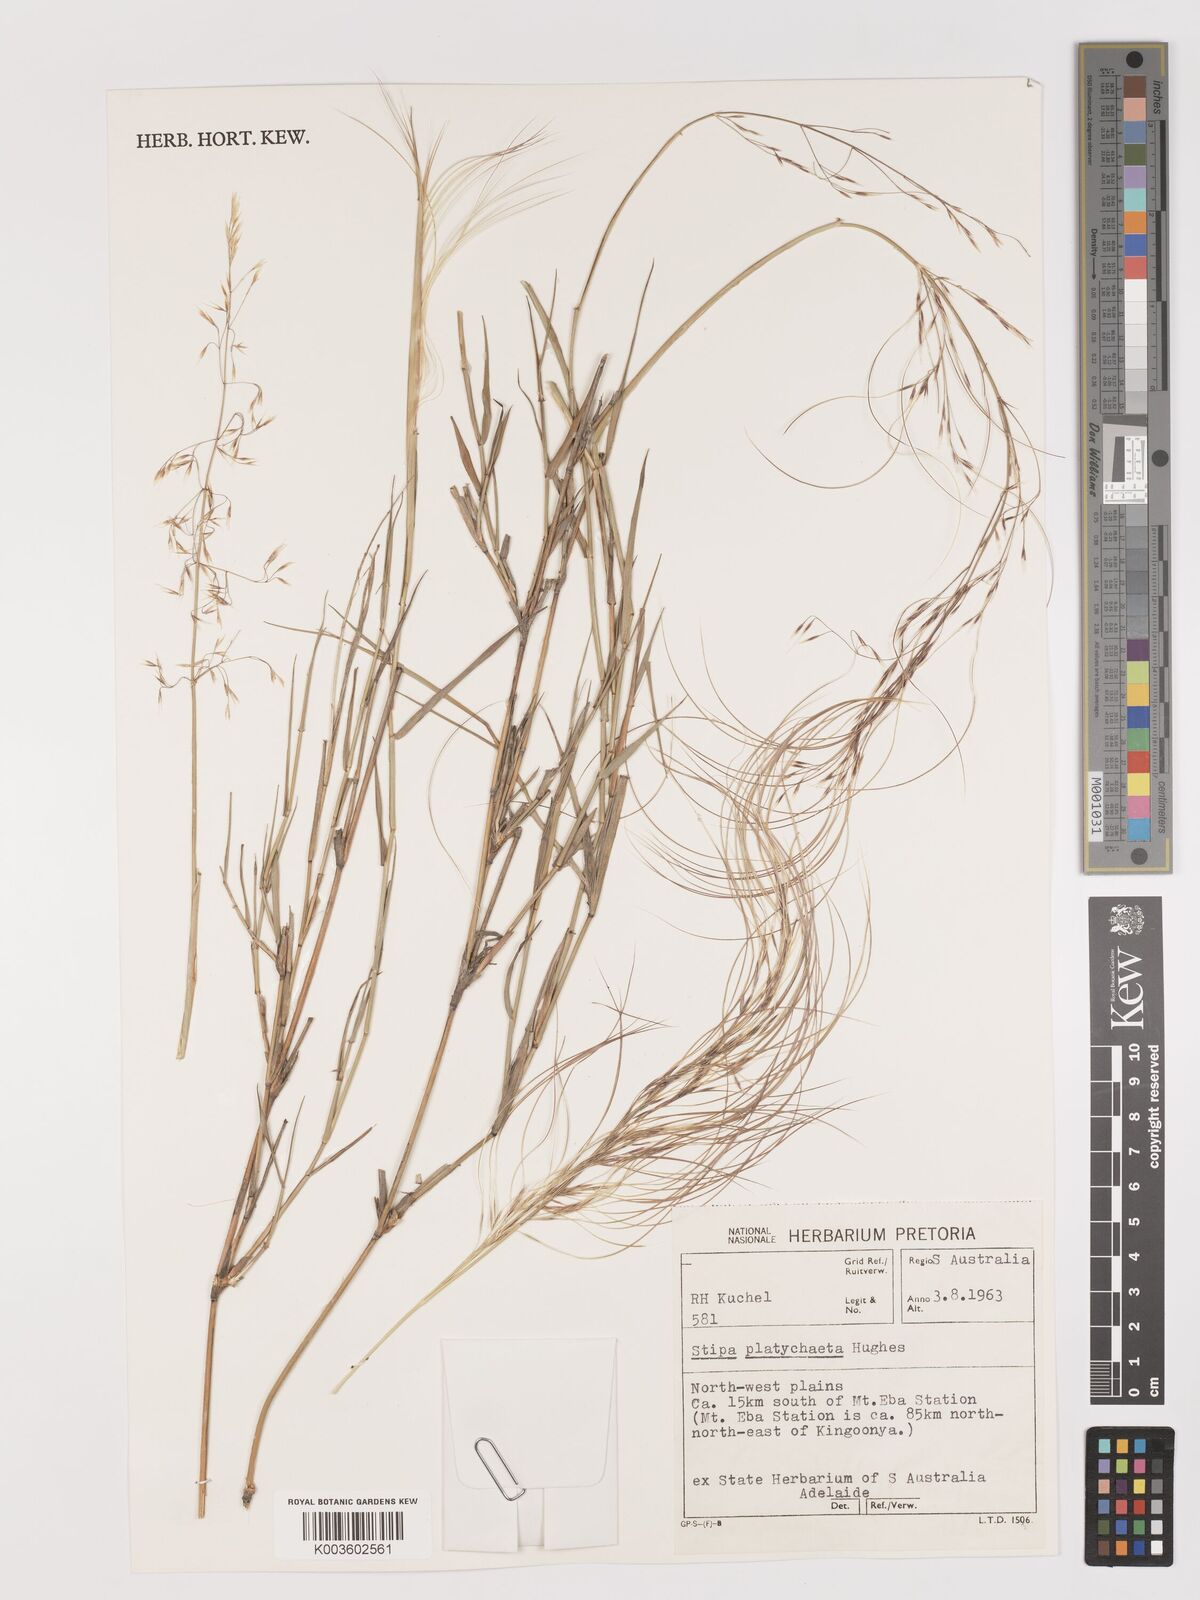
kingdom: Plantae
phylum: Tracheophyta
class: Liliopsida
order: Poales
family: Poaceae
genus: Austrostipa
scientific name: Austrostipa platychaeta
